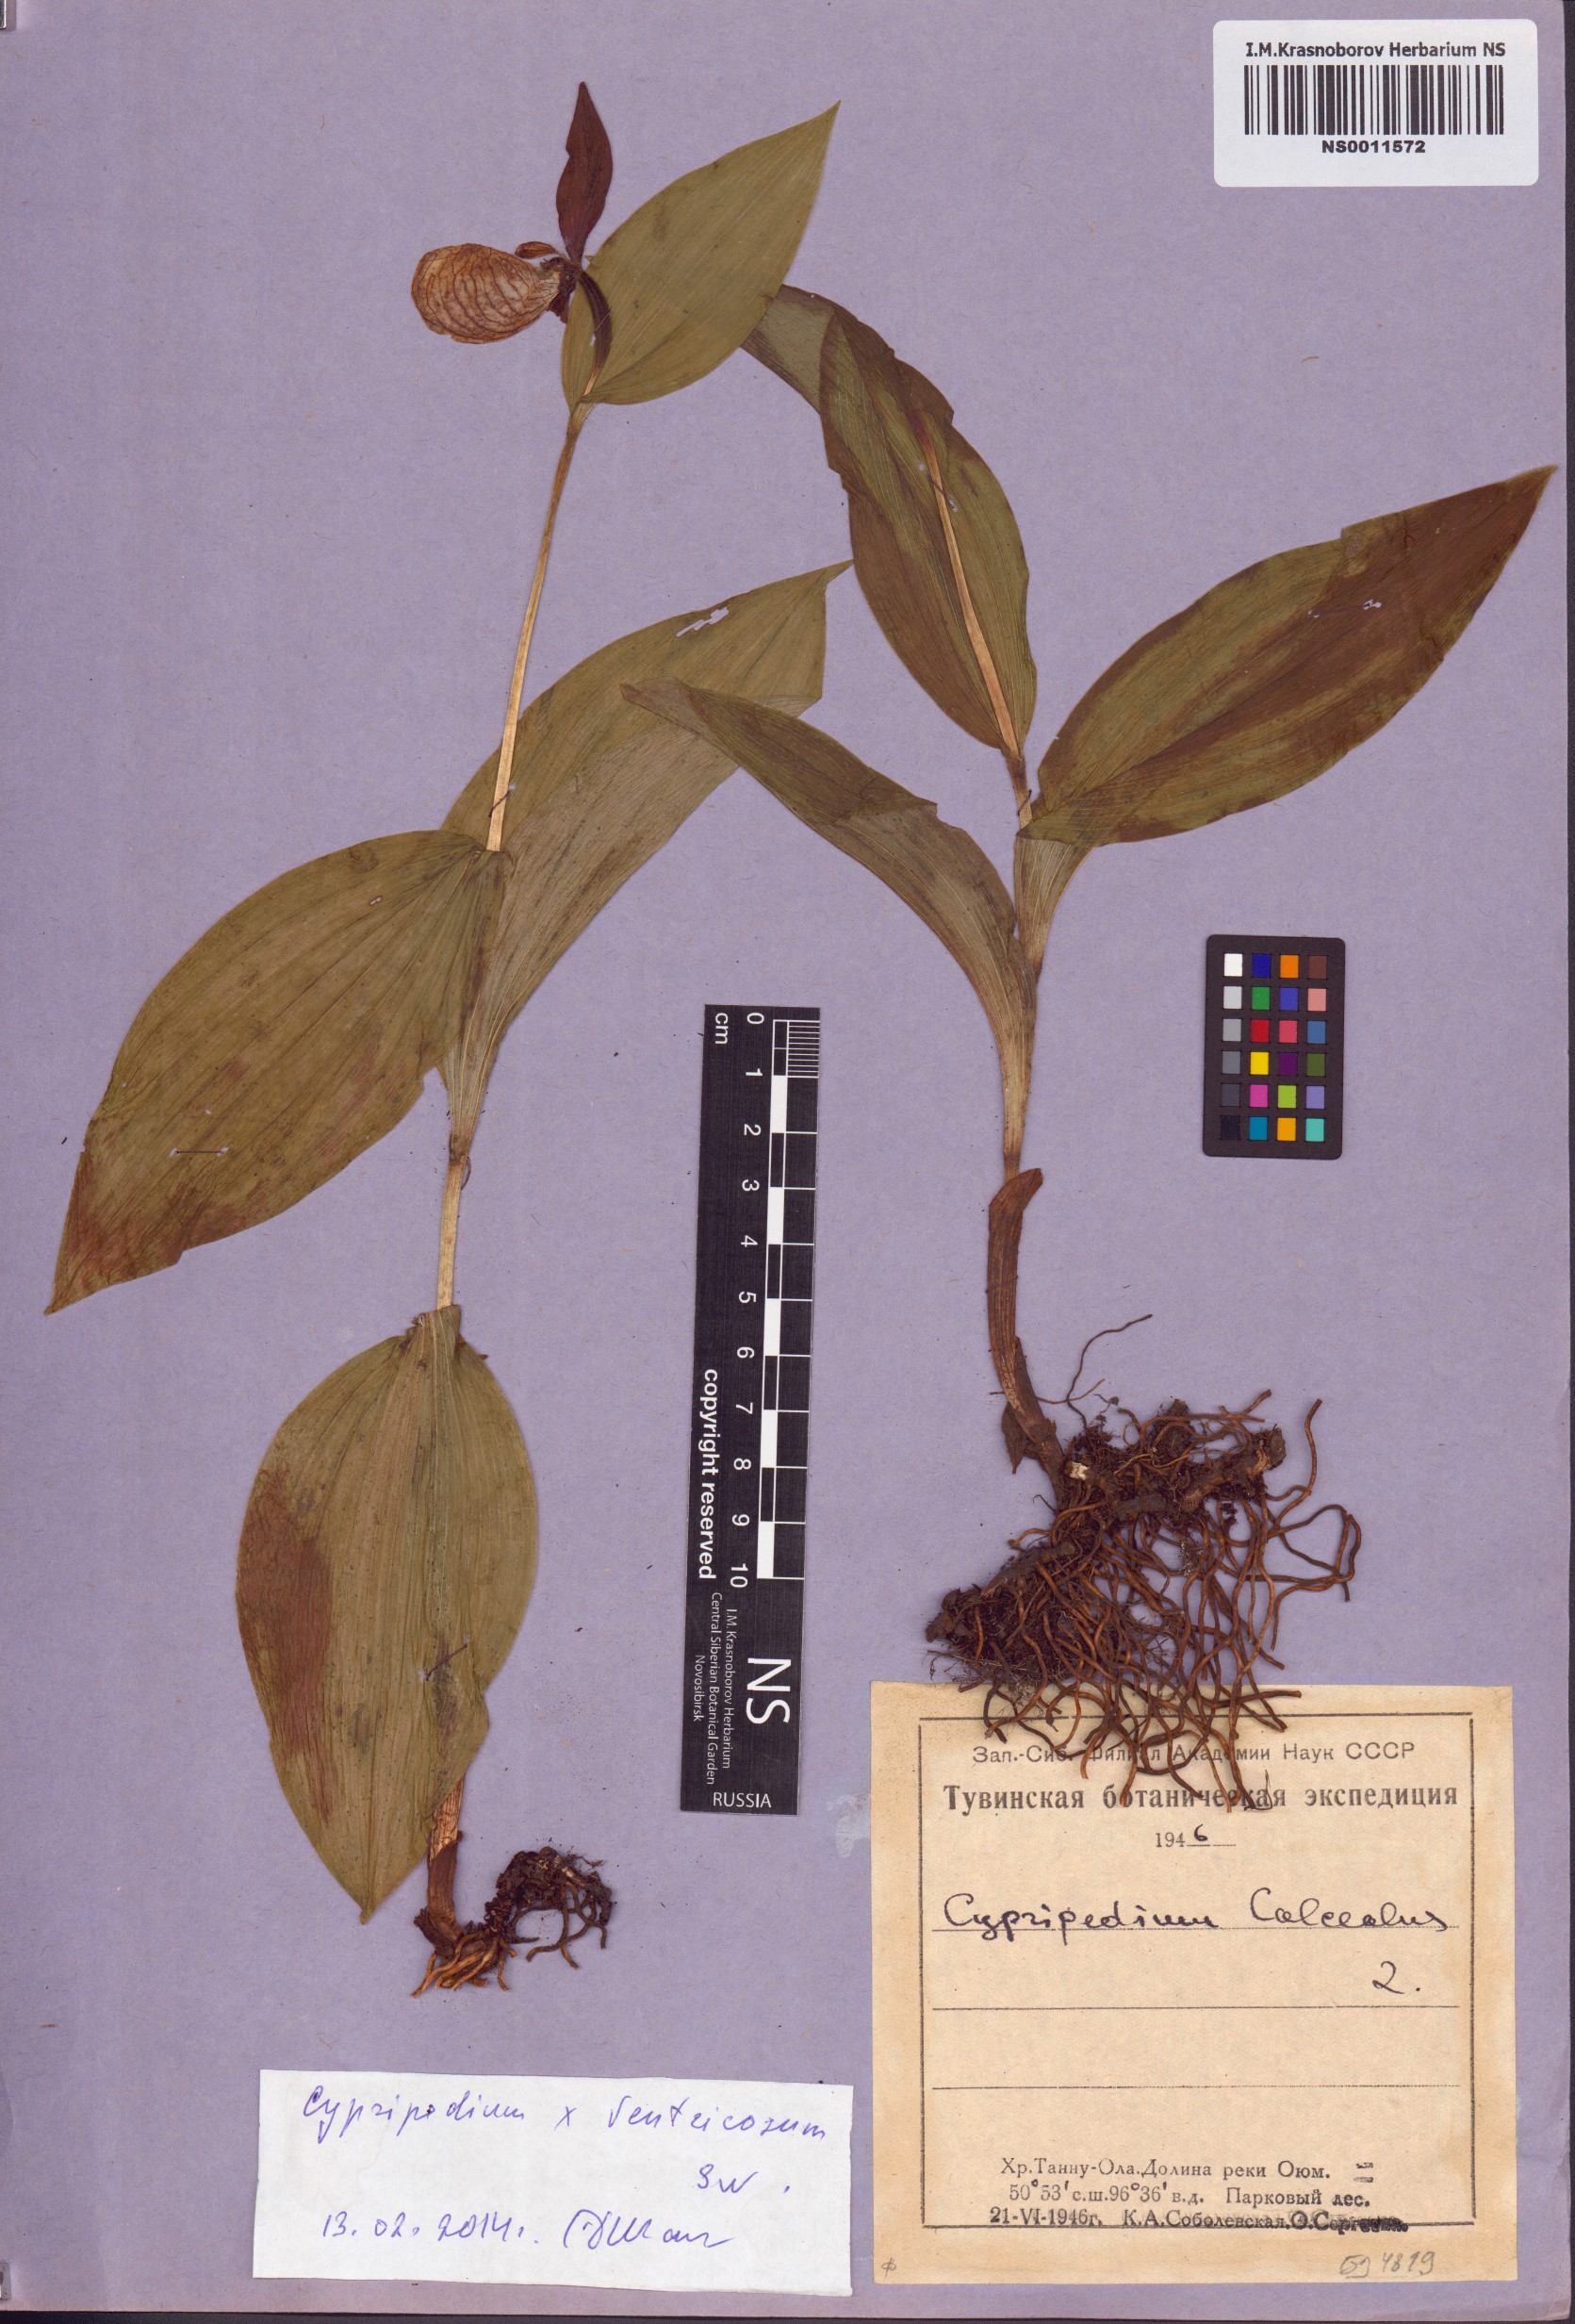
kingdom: Plantae
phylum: Tracheophyta
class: Liliopsida
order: Asparagales
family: Orchidaceae
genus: Cypripedium
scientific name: Cypripedium ventricosum
